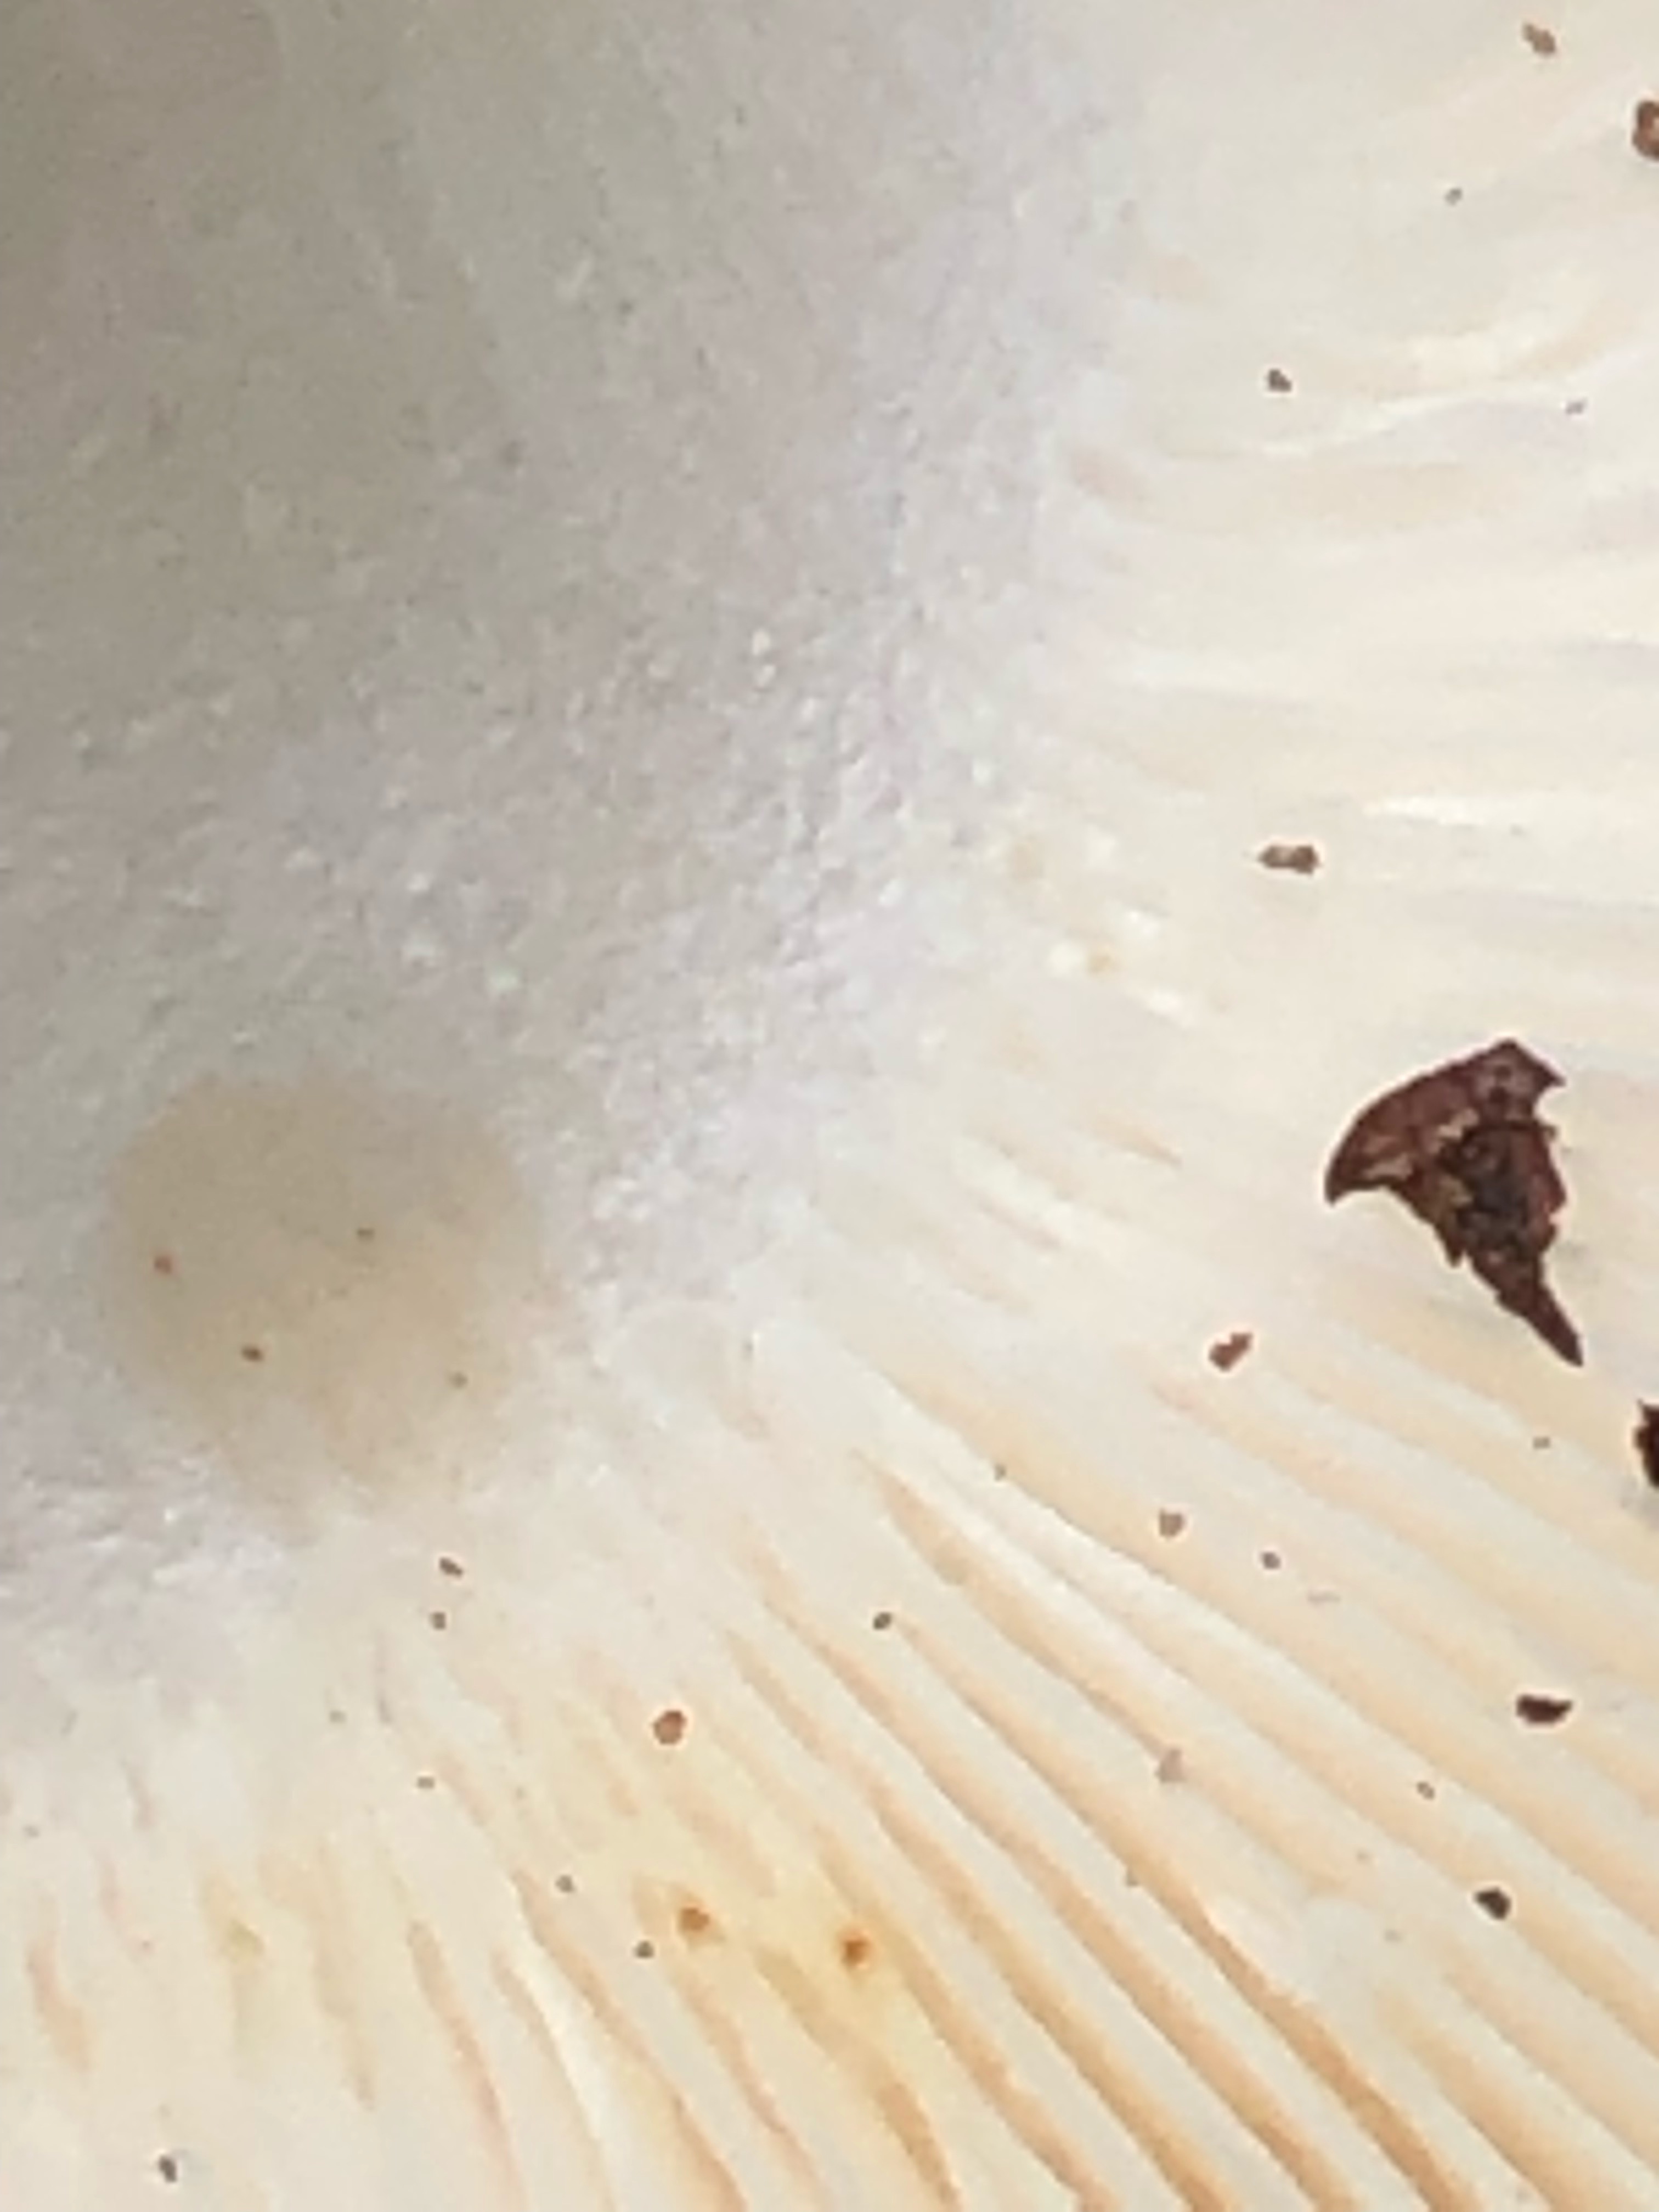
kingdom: Fungi
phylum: Basidiomycota
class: Agaricomycetes
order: Russulales
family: Russulaceae
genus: Russula
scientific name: Russula vesca
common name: spiselig skørhat
